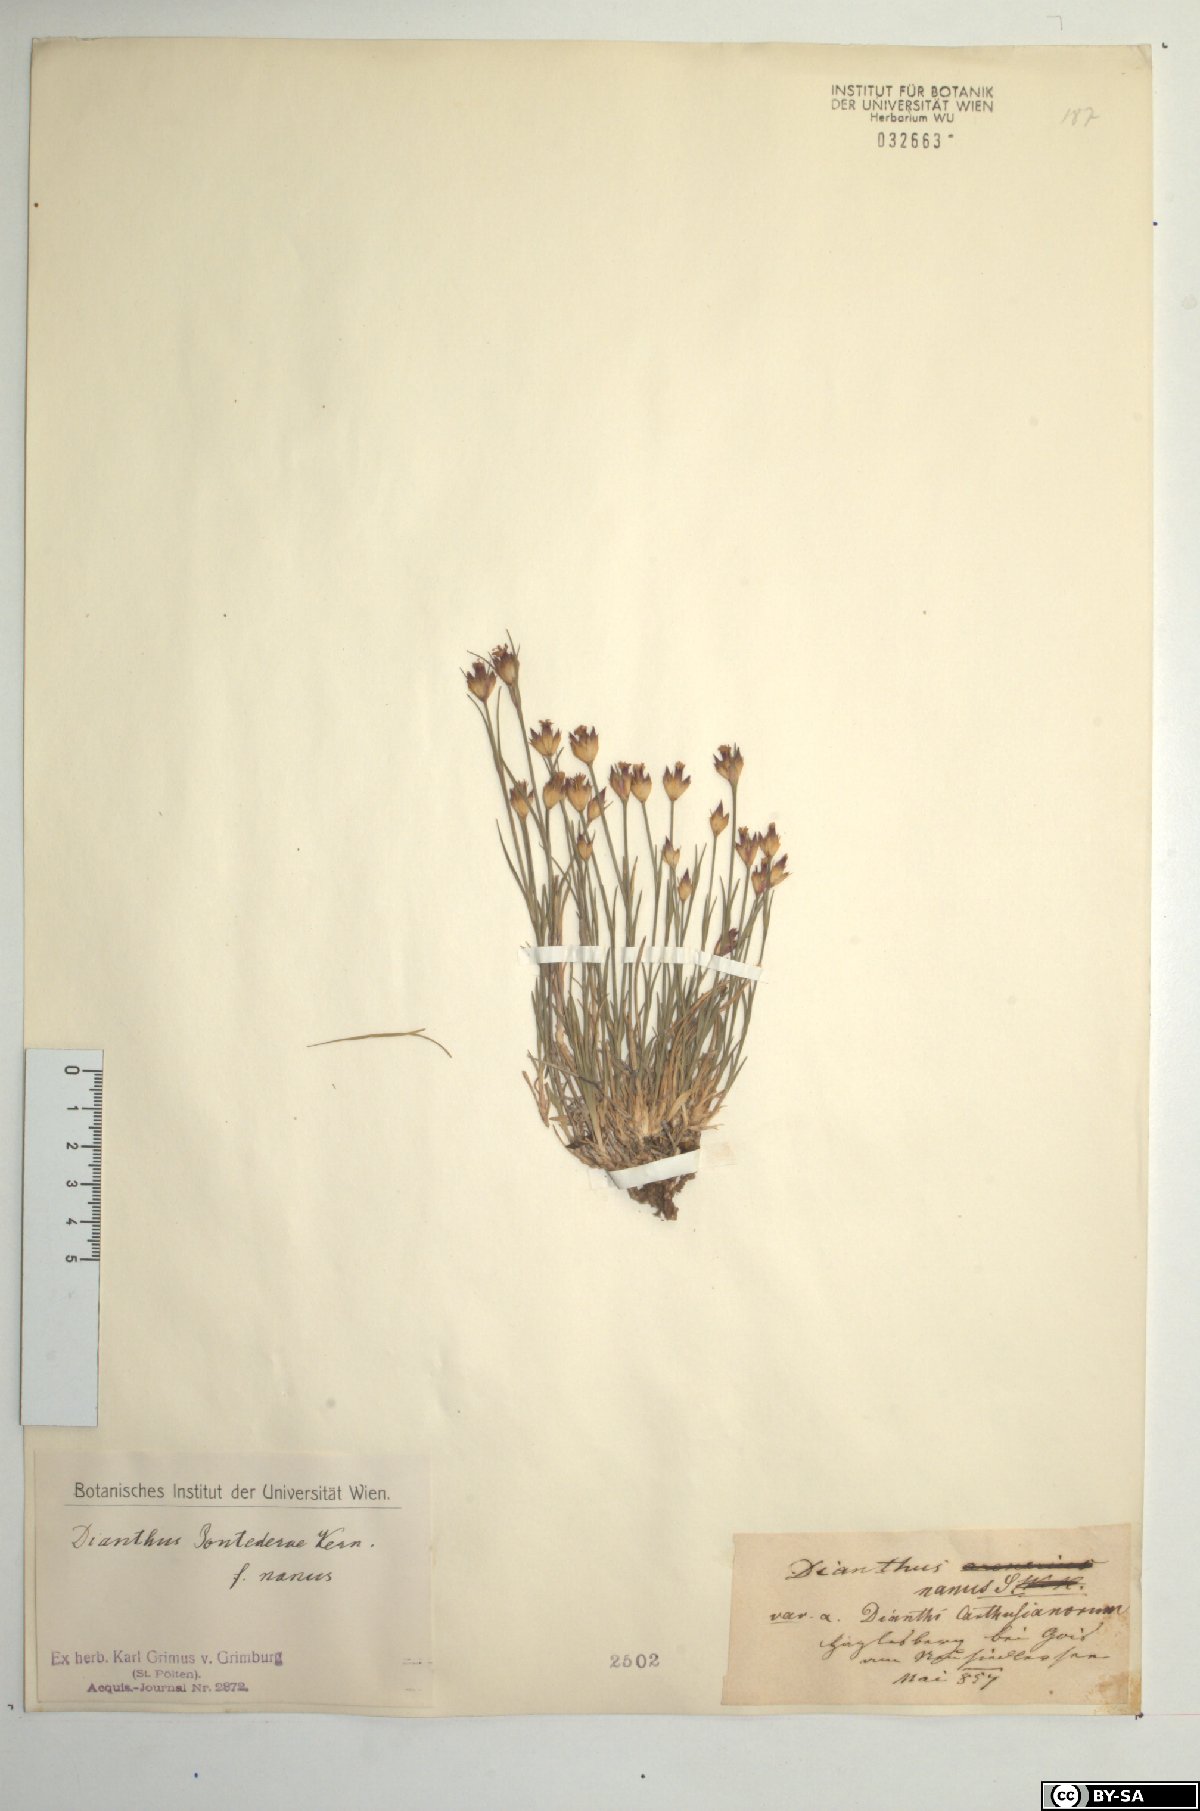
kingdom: Plantae
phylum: Tracheophyta
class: Magnoliopsida
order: Caryophyllales
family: Caryophyllaceae
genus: Dianthus
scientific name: Dianthus pontederae
